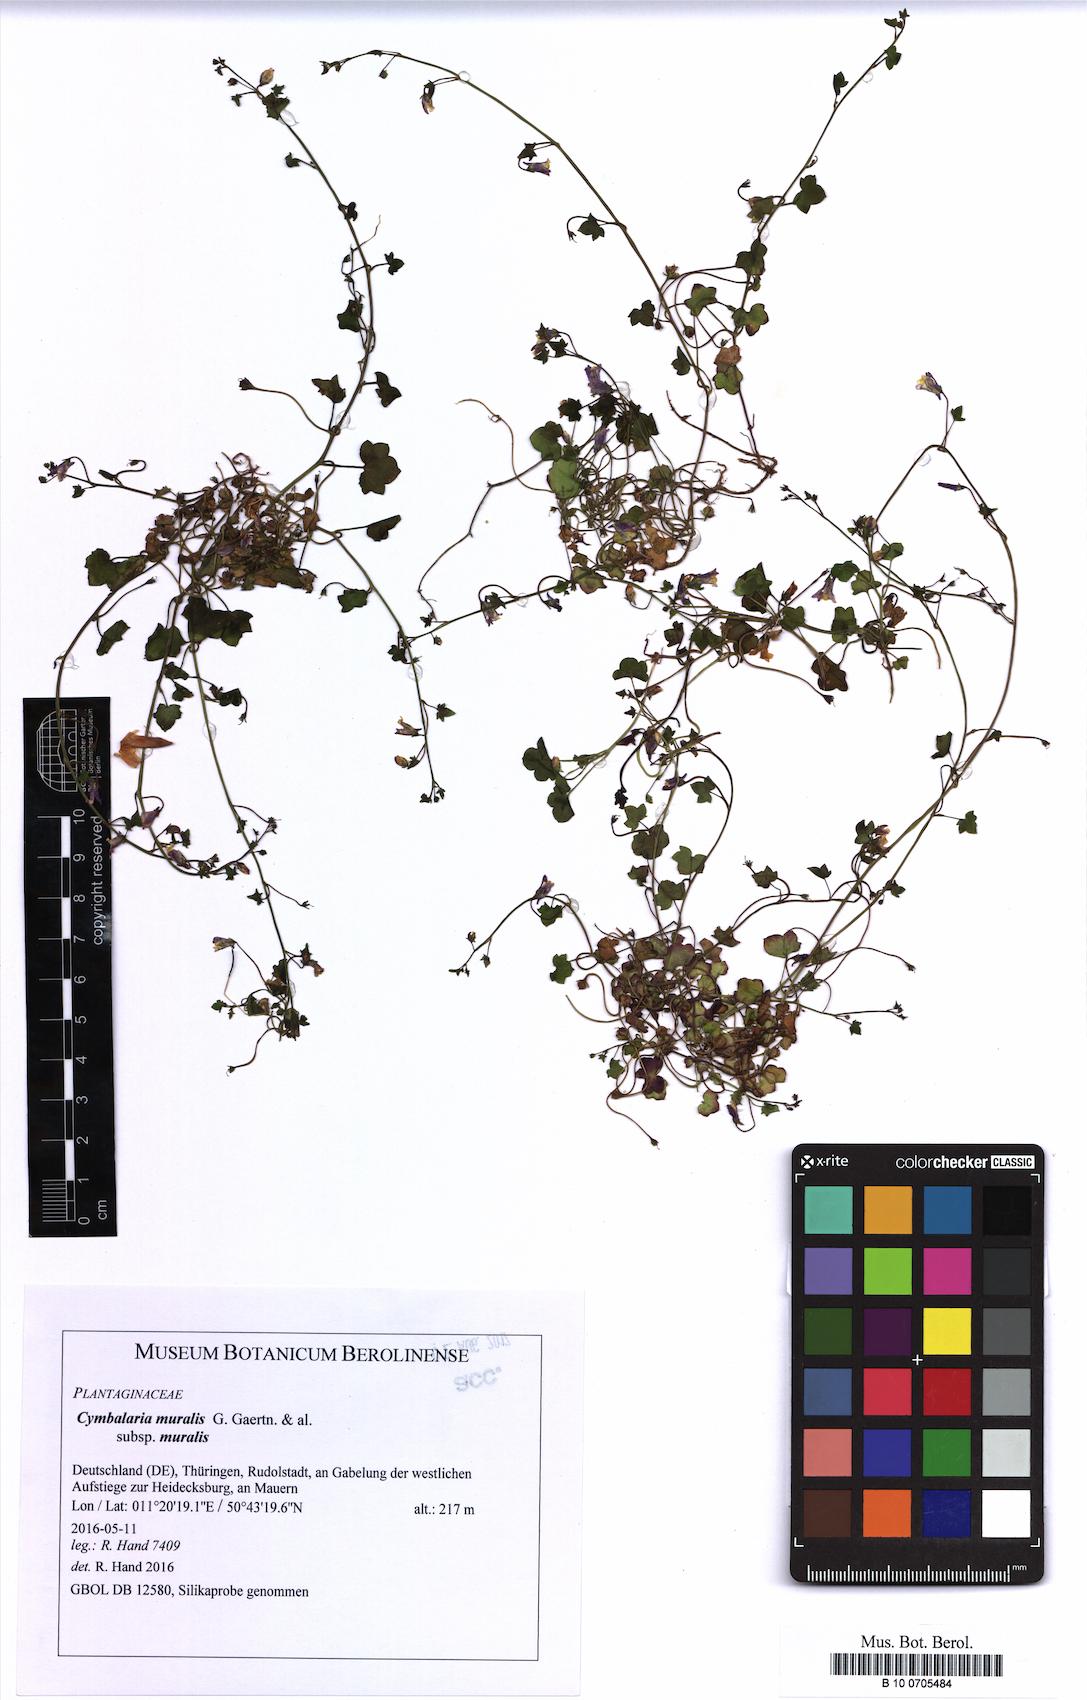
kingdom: Plantae
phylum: Tracheophyta
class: Magnoliopsida
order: Lamiales
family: Plantaginaceae
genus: Cymbalaria
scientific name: Cymbalaria muralis
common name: Ivy-leaved toadflax
